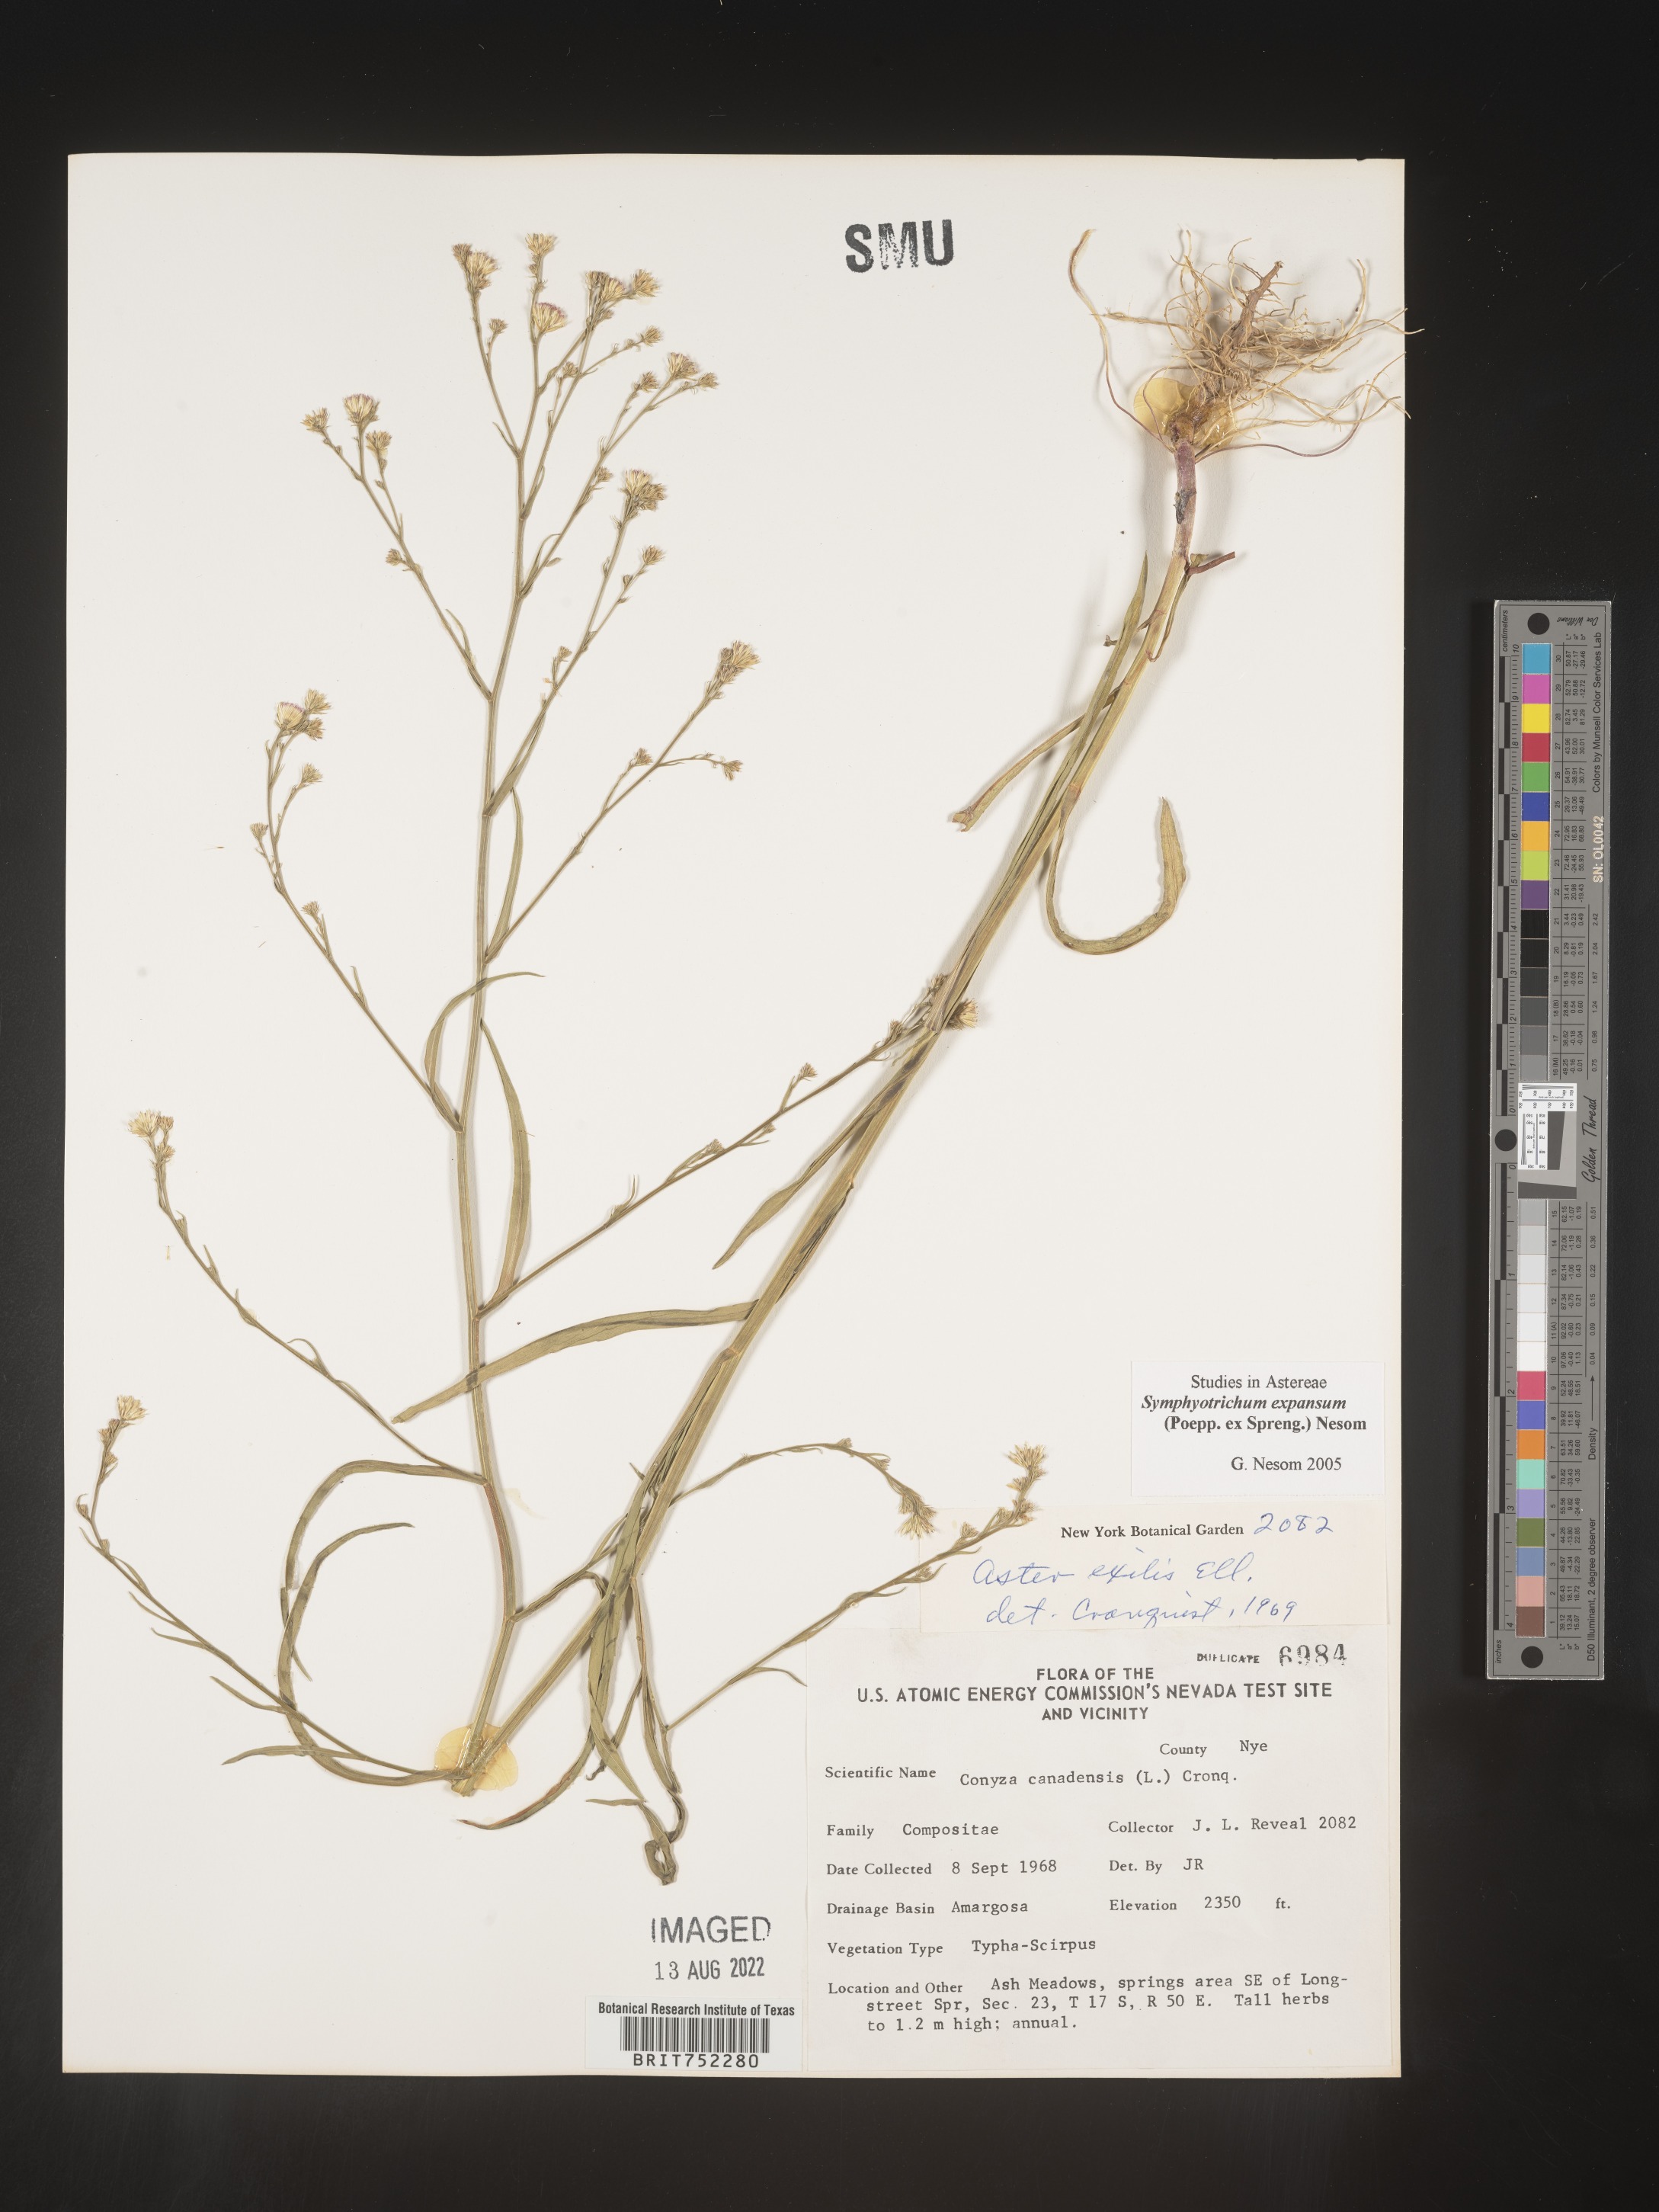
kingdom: Plantae
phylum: Tracheophyta
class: Magnoliopsida
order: Asterales
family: Asteraceae
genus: Symphyotrichum
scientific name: Symphyotrichum expansum
